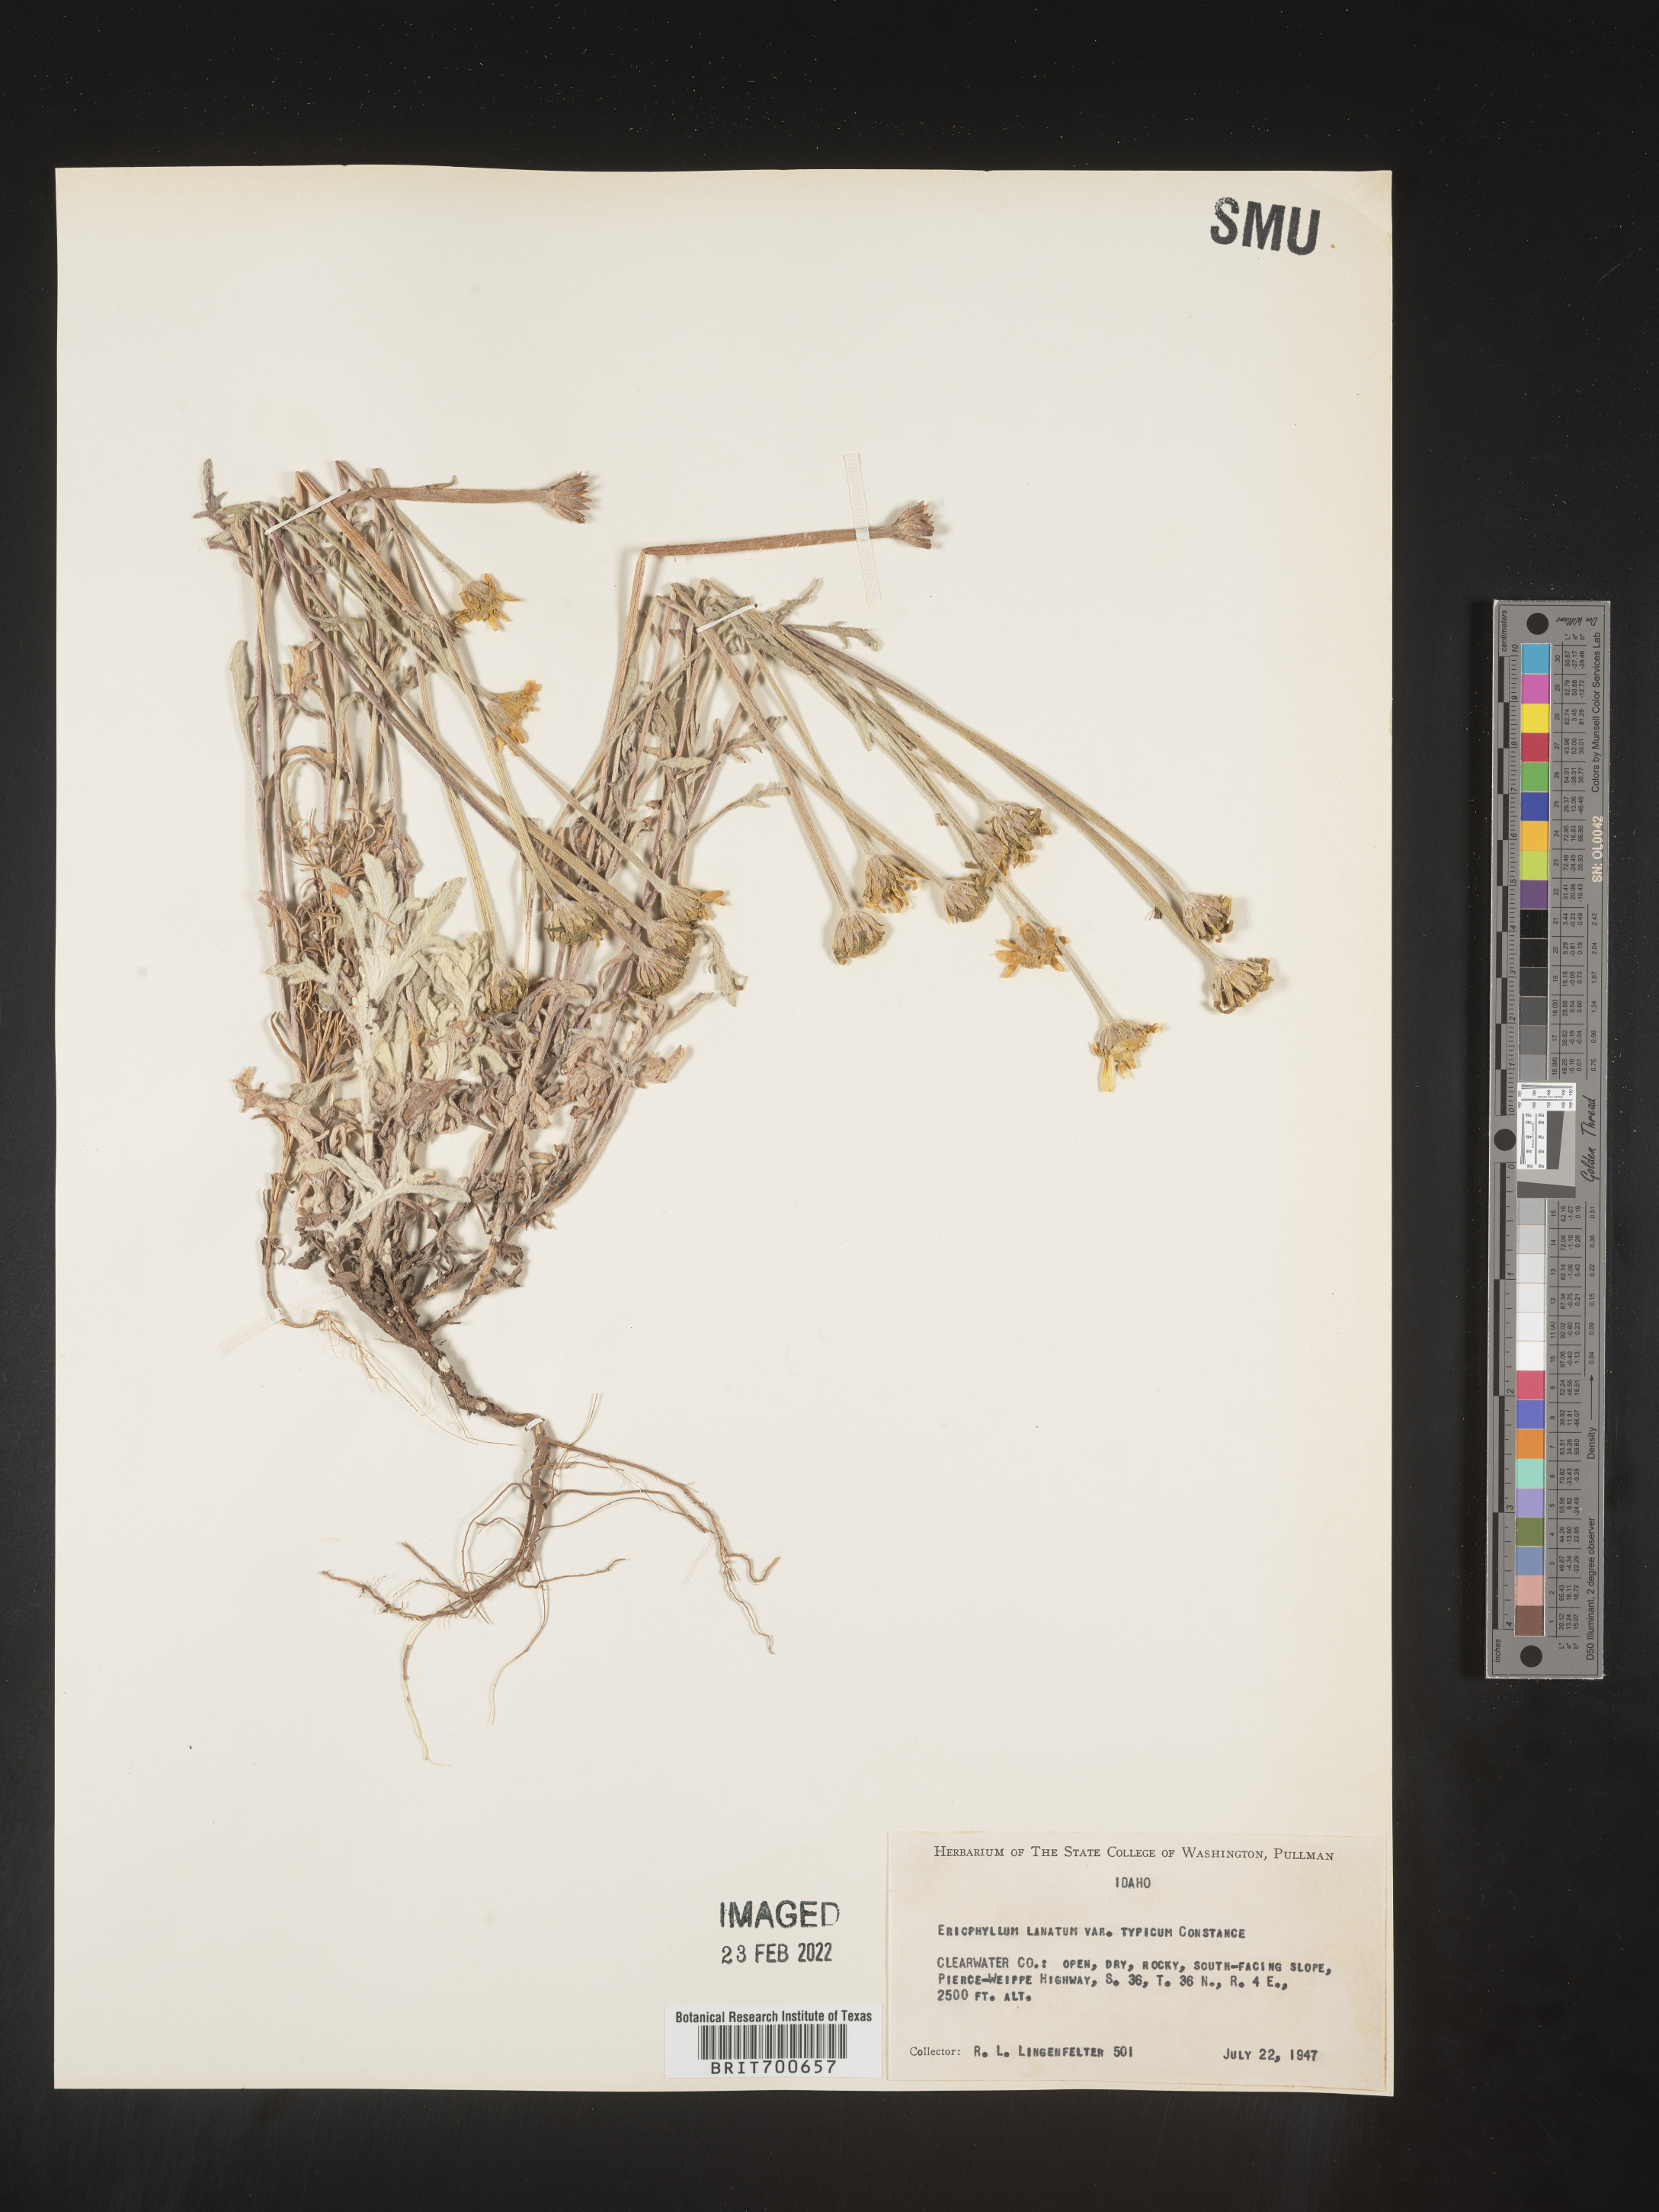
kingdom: Plantae
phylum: Tracheophyta
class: Magnoliopsida
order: Asterales
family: Asteraceae
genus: Eriophyllum
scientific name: Eriophyllum lanatum
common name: Common woolly-sunflower
